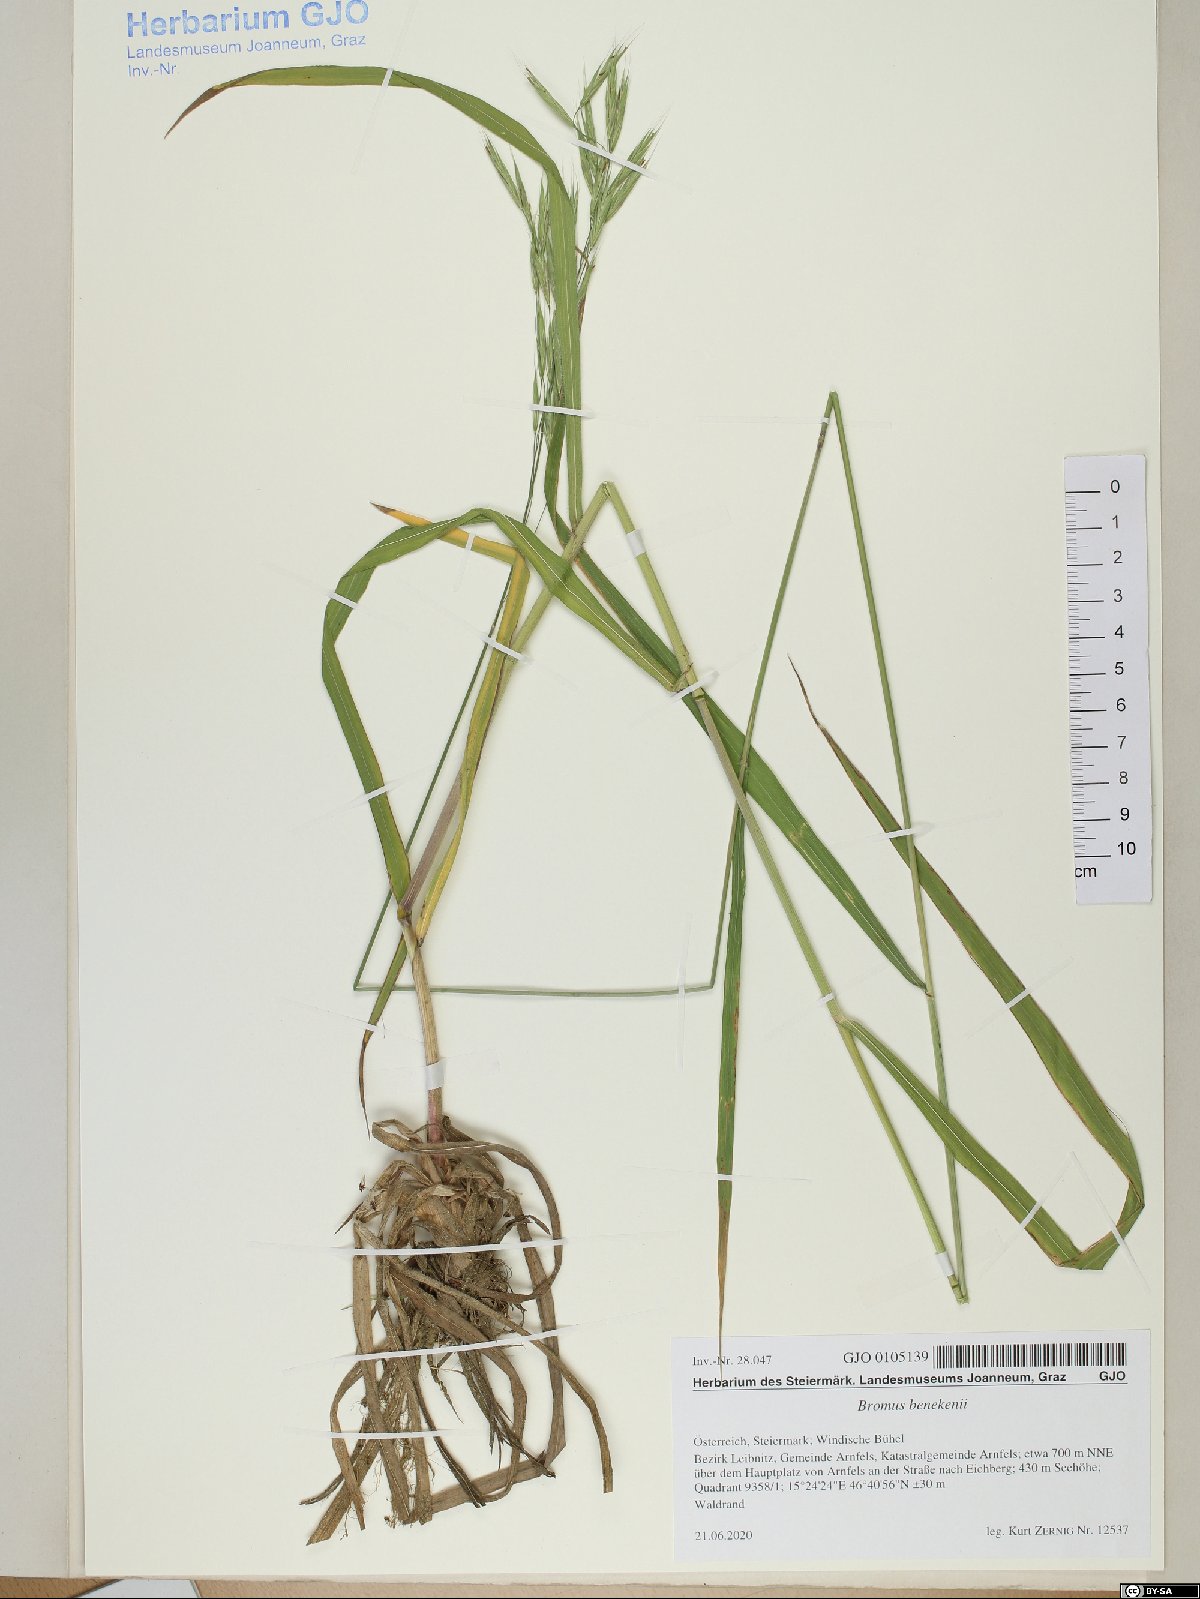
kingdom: Plantae
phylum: Tracheophyta
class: Liliopsida
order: Poales
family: Poaceae
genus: Bromus
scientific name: Bromus benekenii
